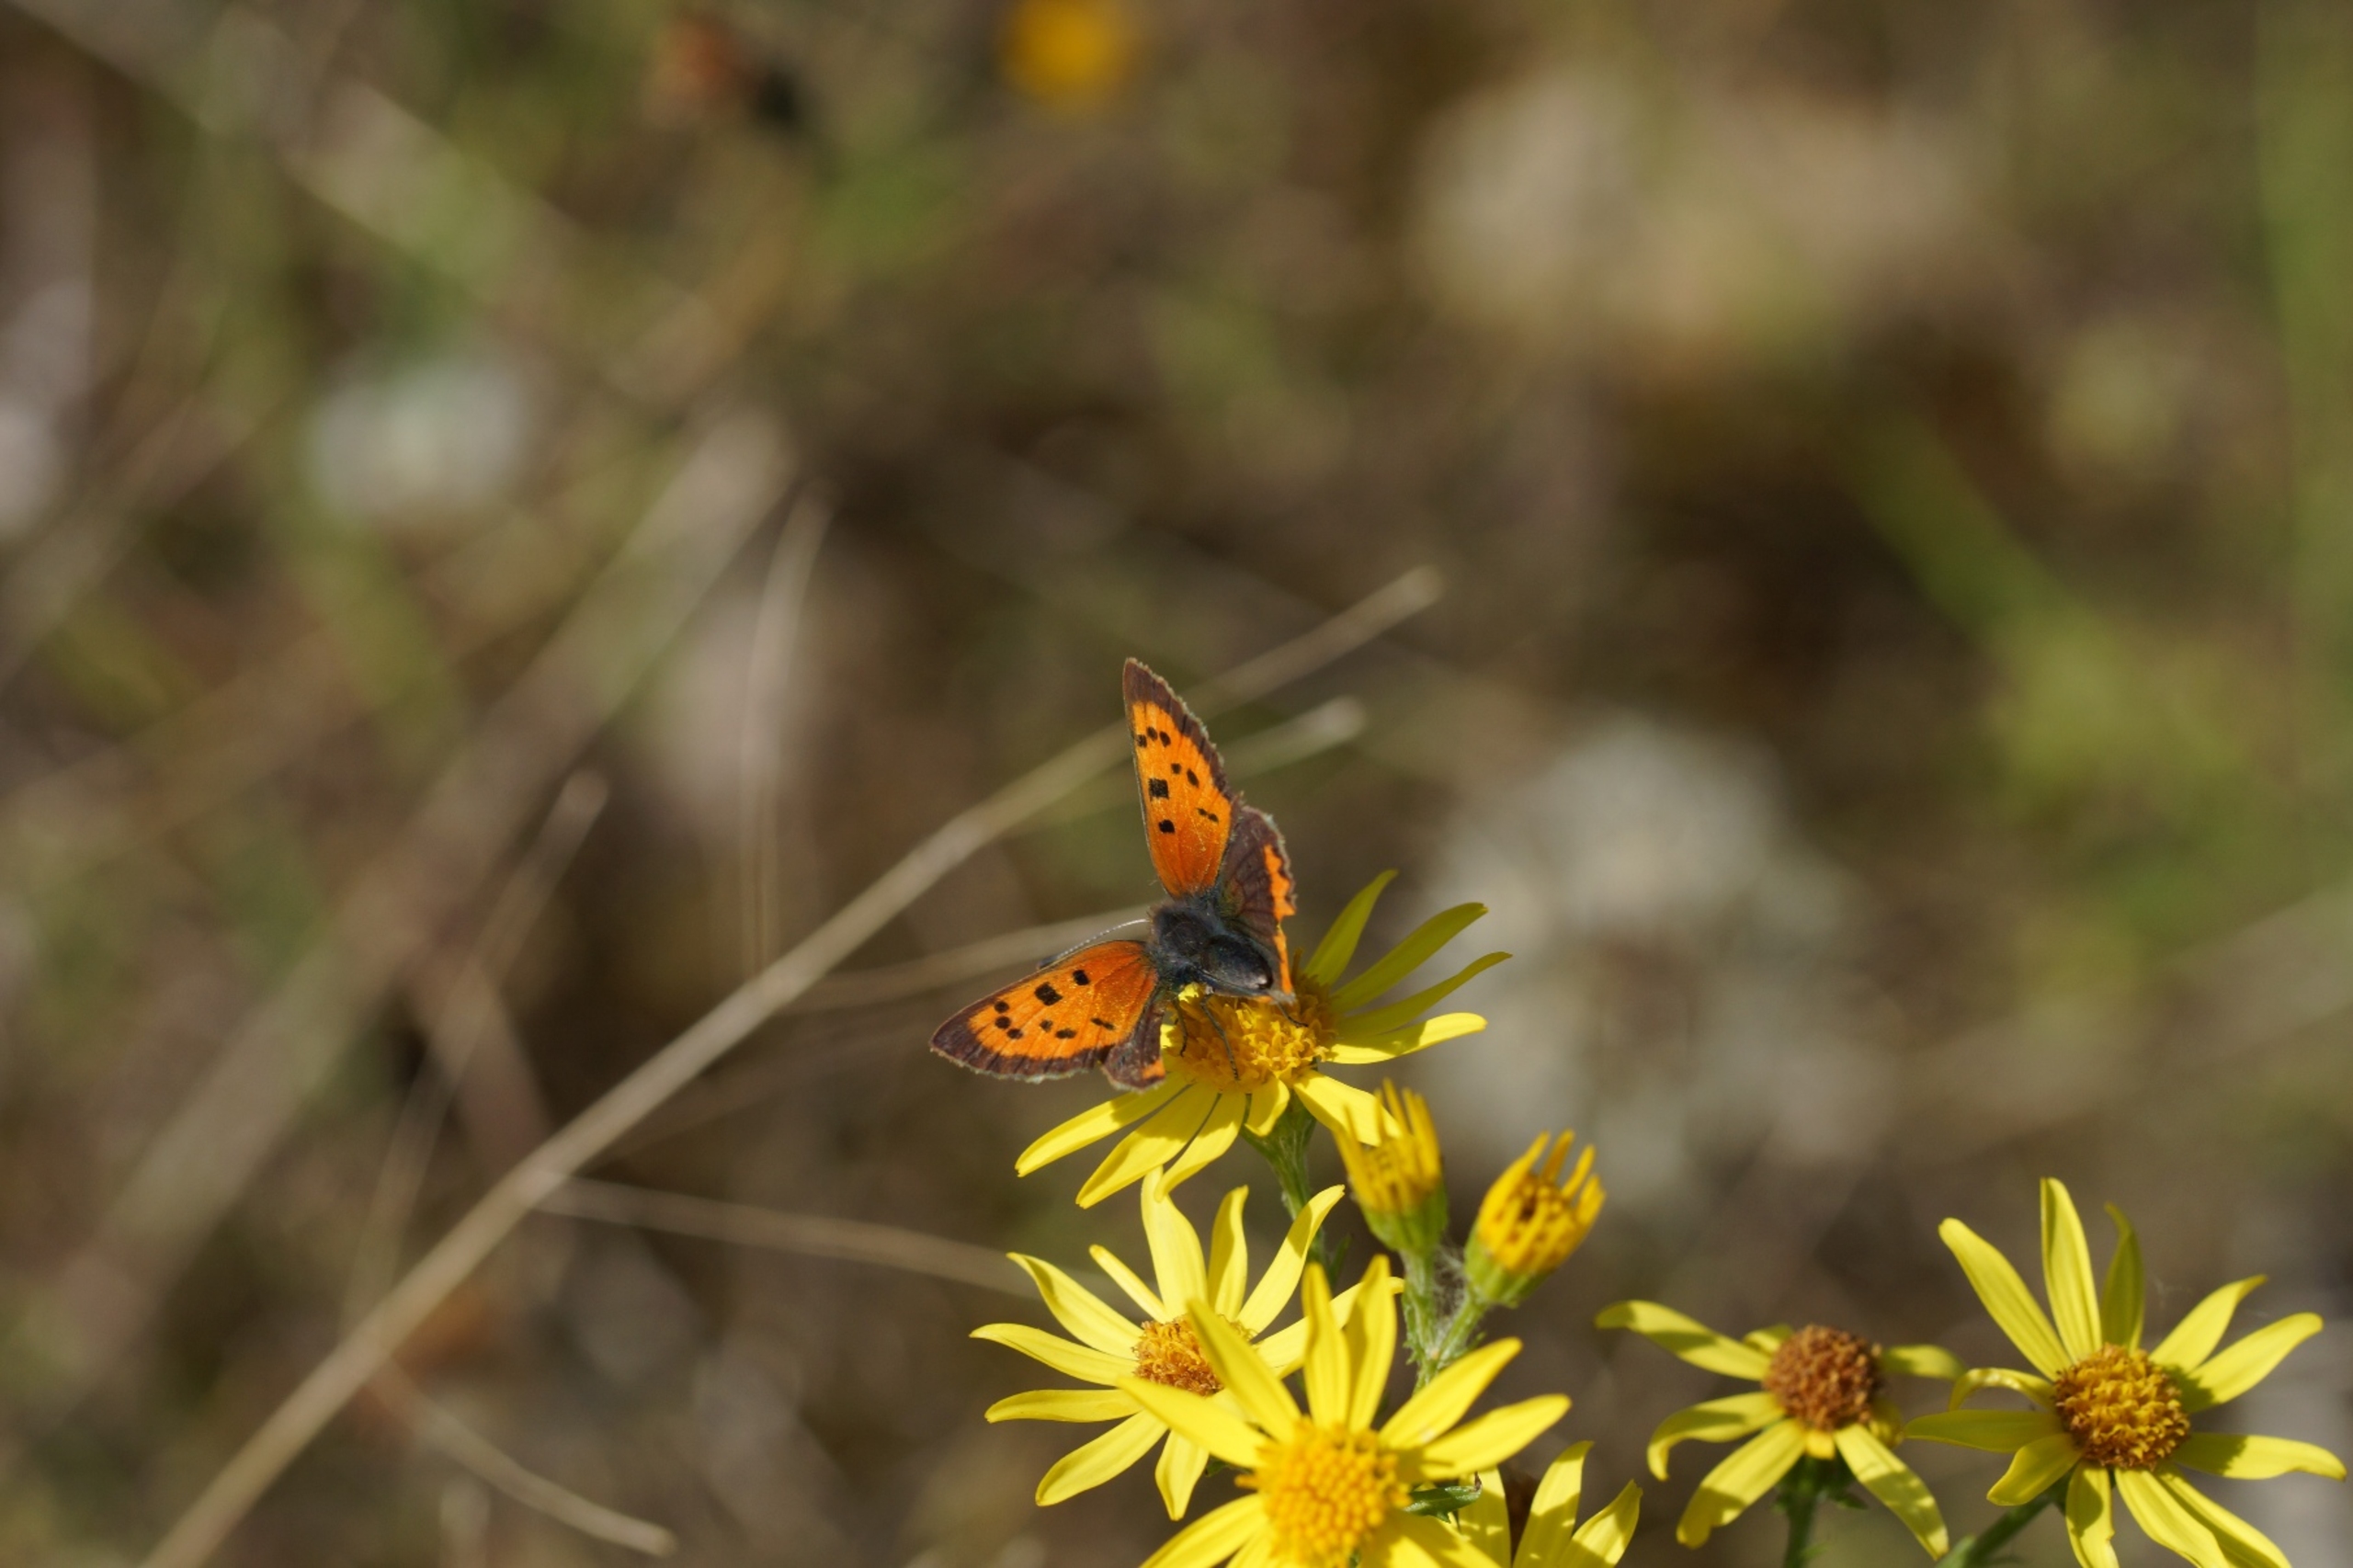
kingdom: Animalia
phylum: Arthropoda
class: Insecta
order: Lepidoptera
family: Lycaenidae
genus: Lycaena
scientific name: Lycaena phlaeas
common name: Lille ildfugl
